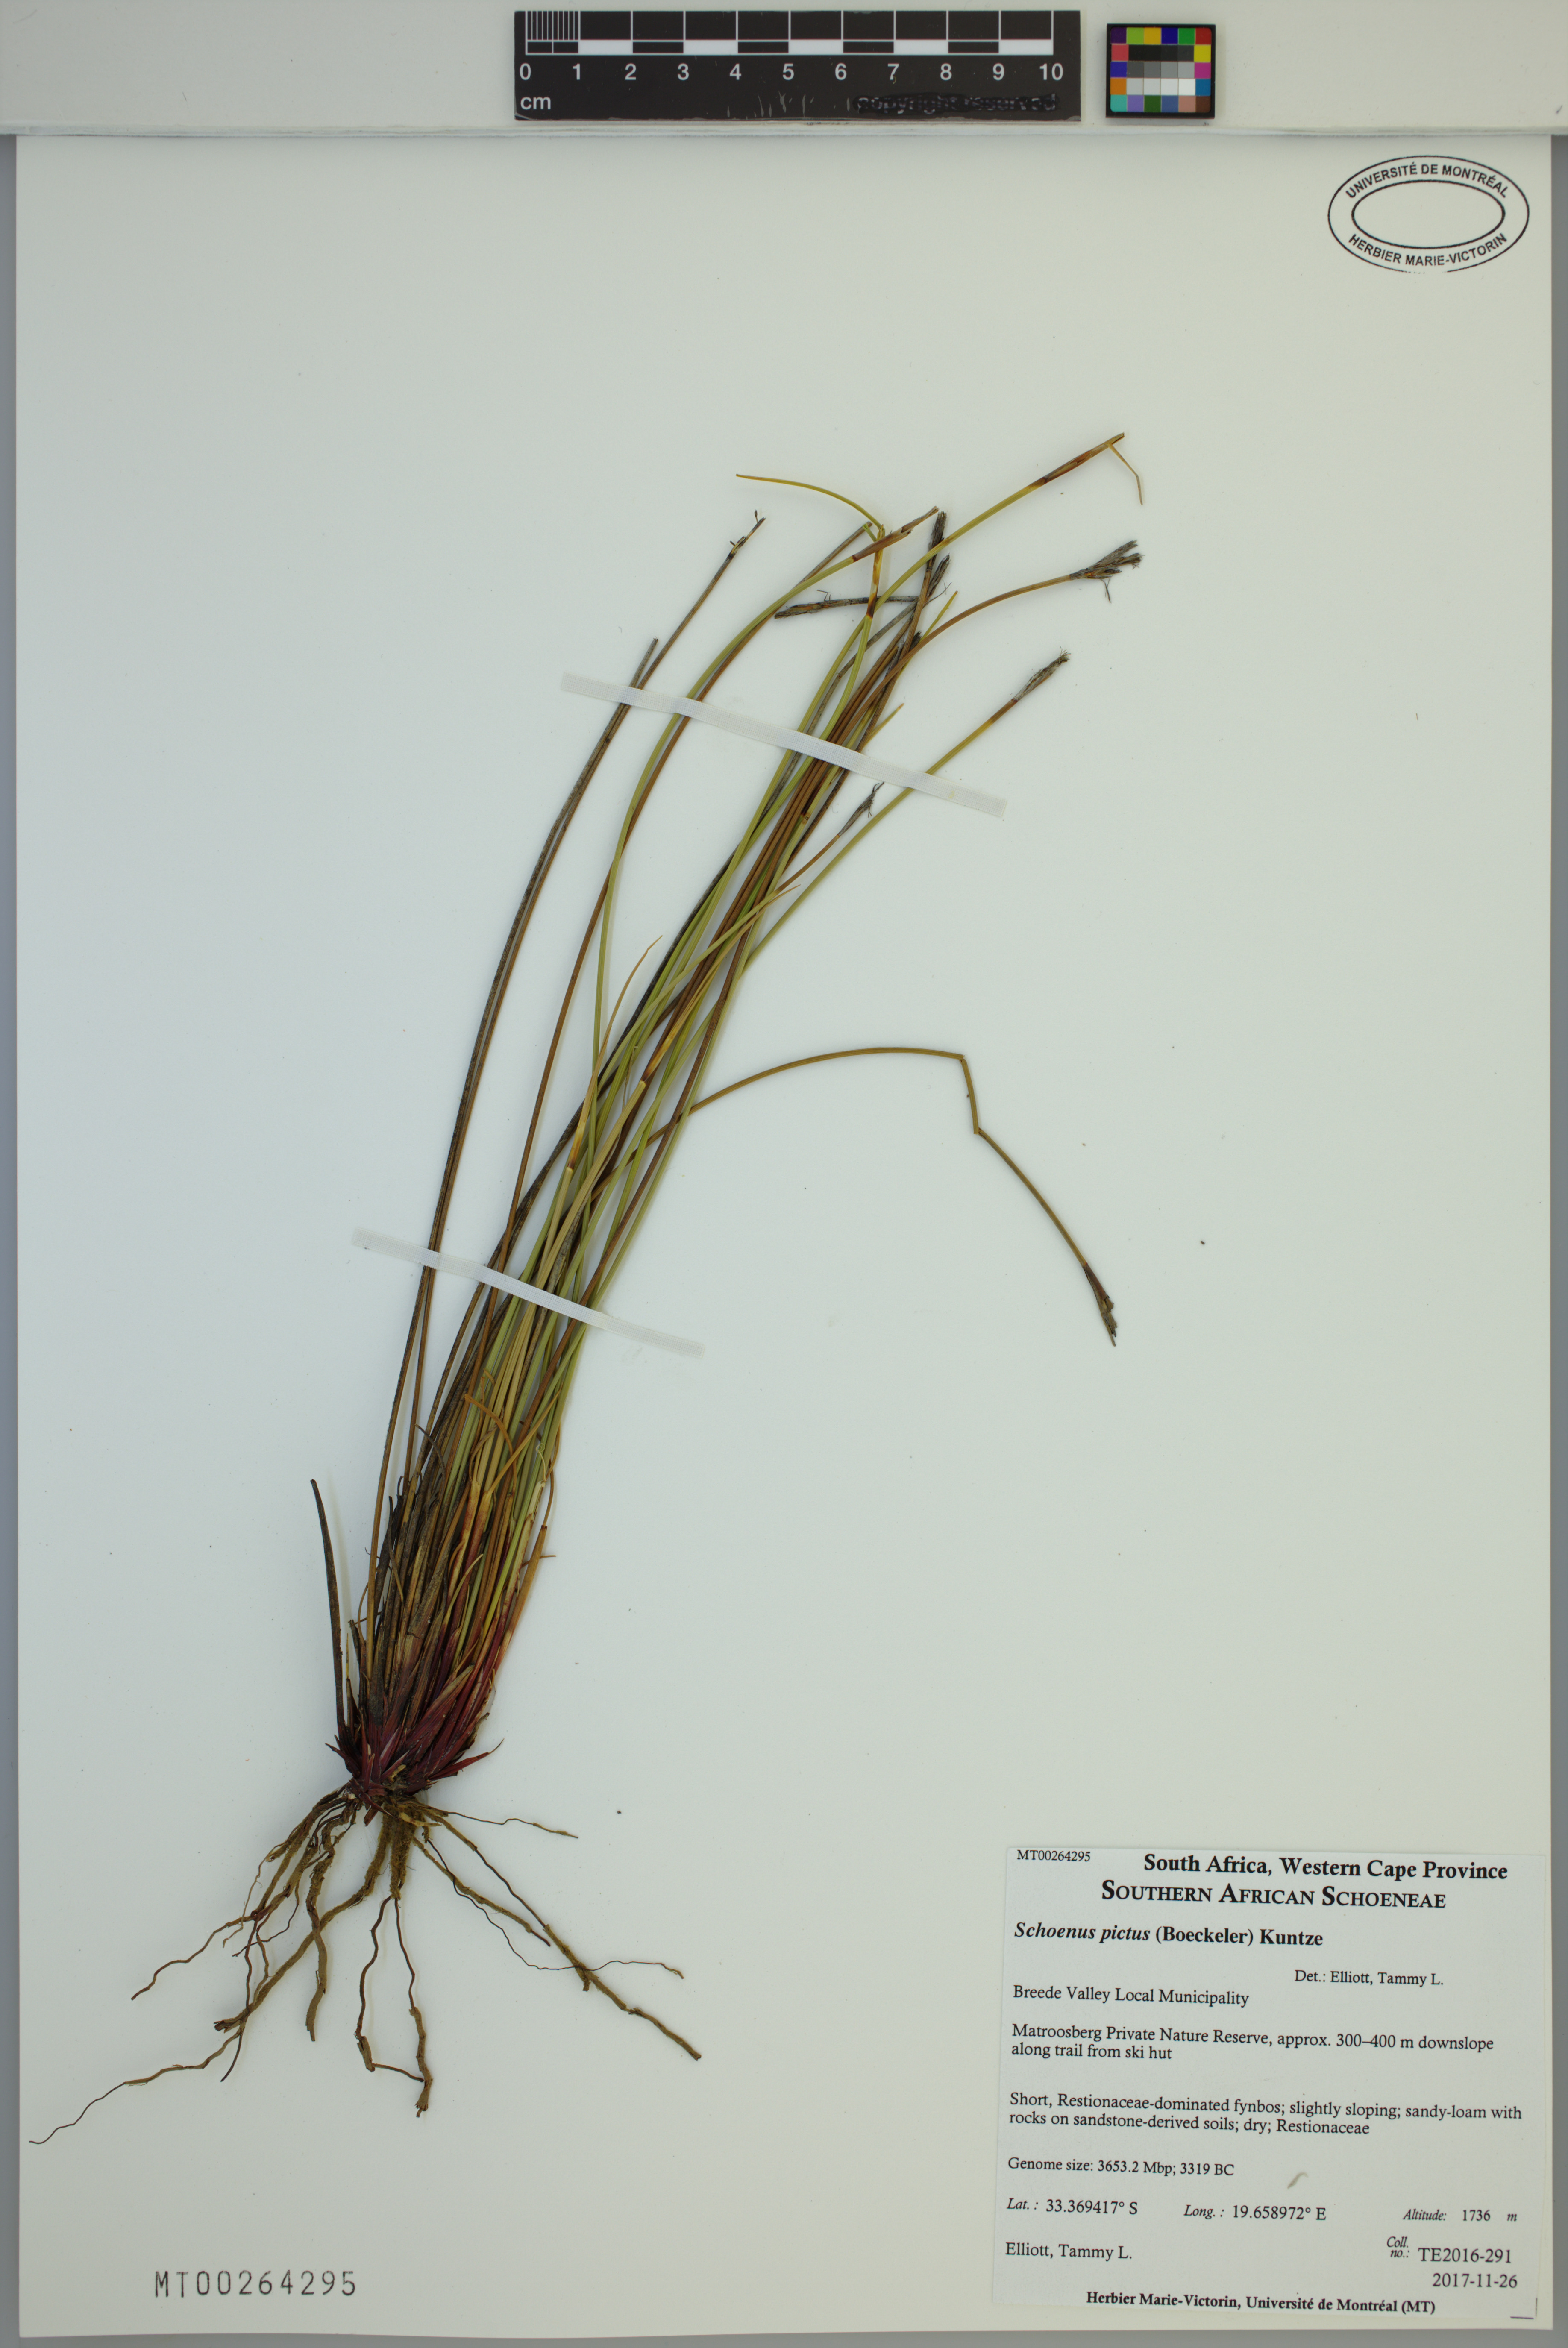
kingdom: Plantae
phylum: Tracheophyta
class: Liliopsida
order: Poales
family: Cyperaceae
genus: Schoenus
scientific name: Schoenus pictus
